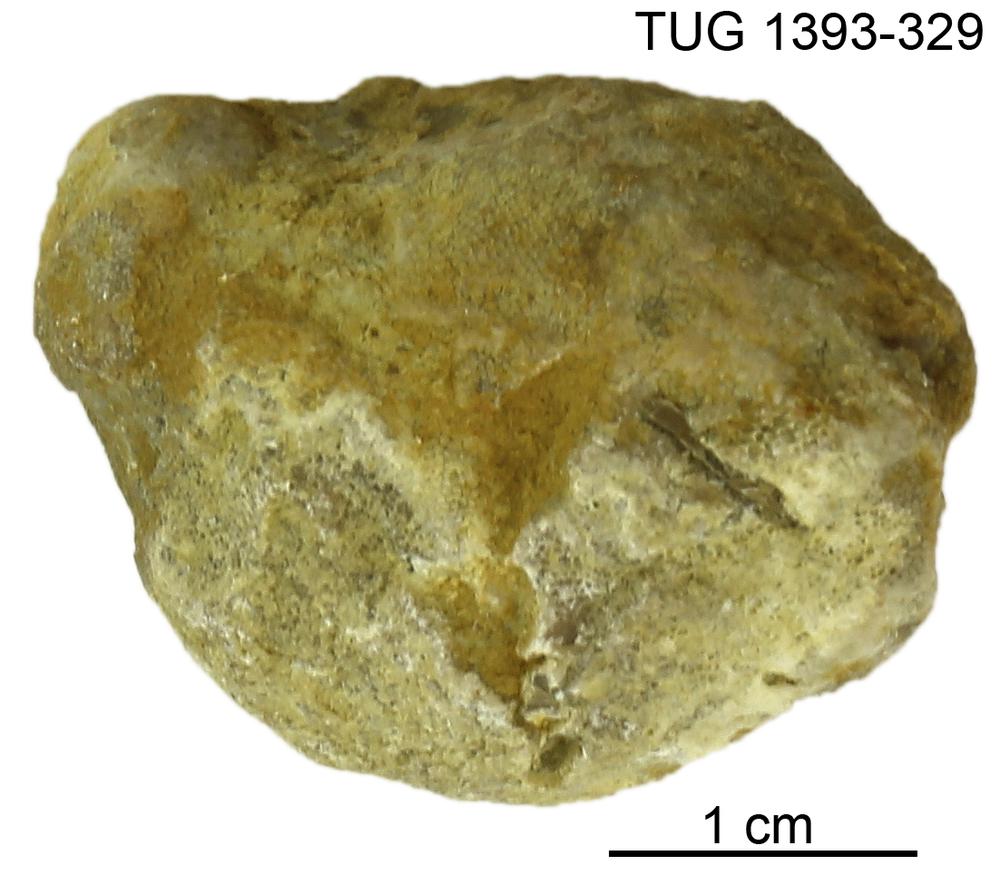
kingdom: Animalia
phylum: Bryozoa
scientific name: Bryozoa
